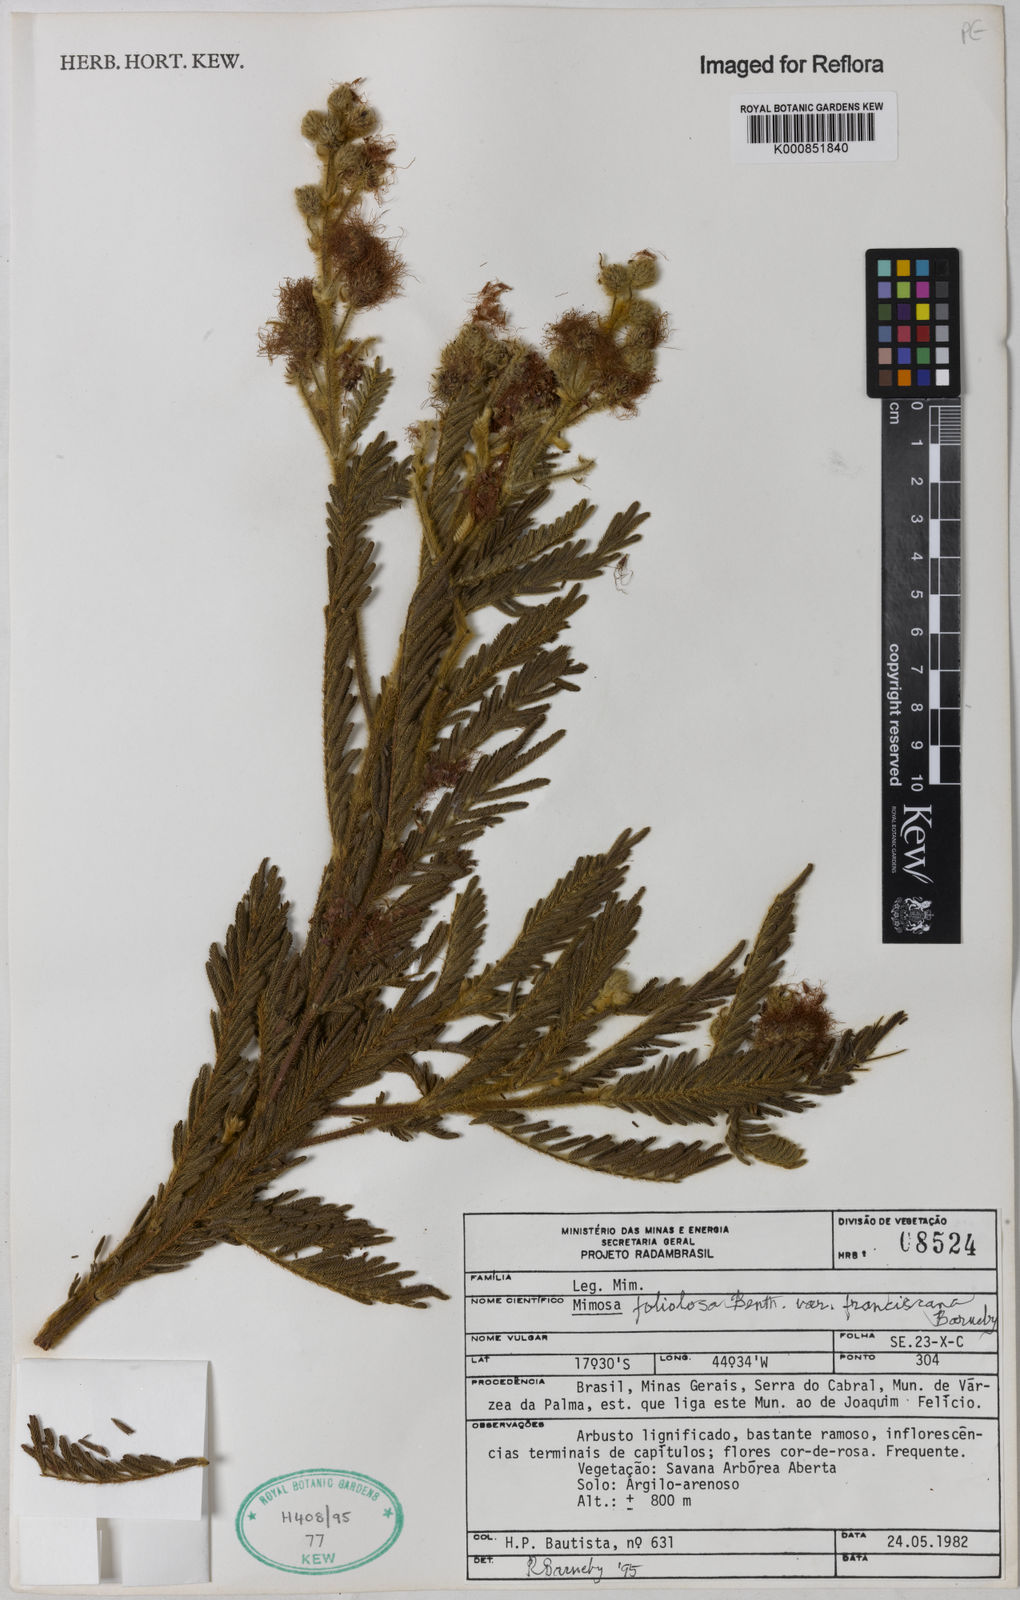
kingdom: Plantae
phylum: Tracheophyta
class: Magnoliopsida
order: Fabales
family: Fabaceae
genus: Mimosa
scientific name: Mimosa foliolosa
